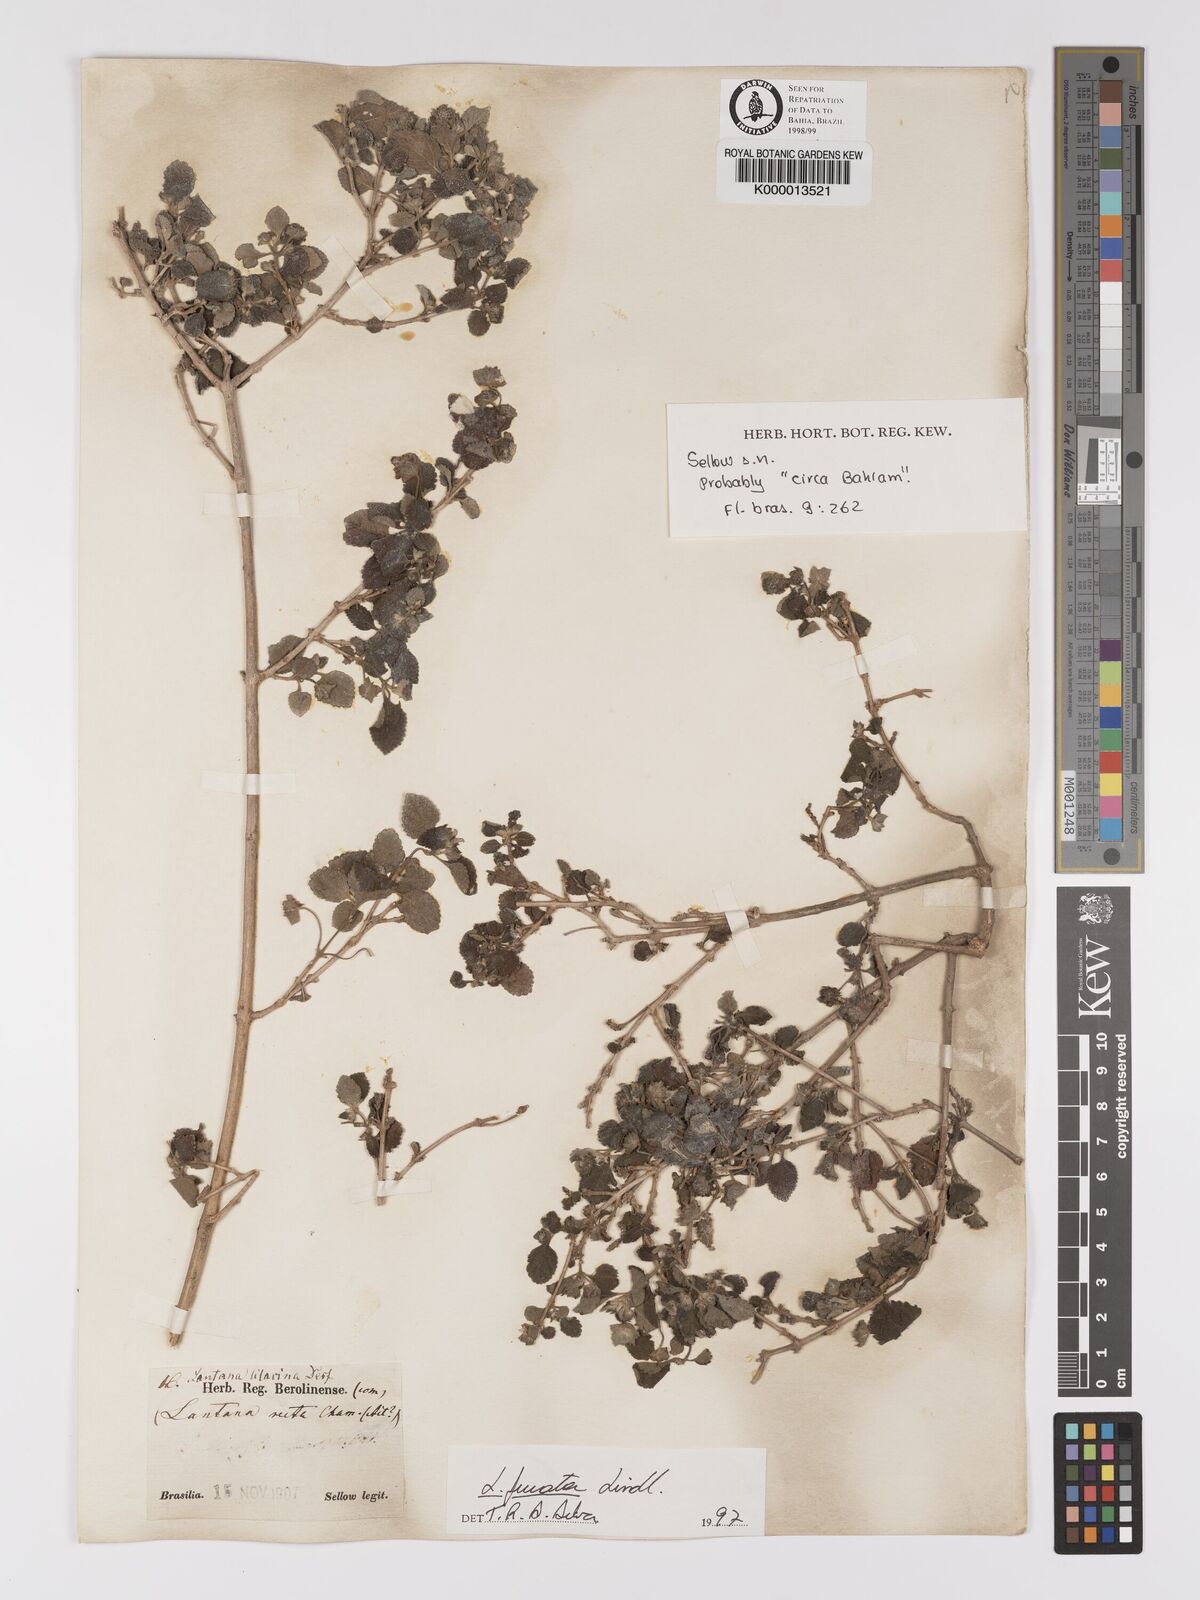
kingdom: Plantae
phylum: Tracheophyta
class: Magnoliopsida
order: Lamiales
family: Verbenaceae
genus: Lantana
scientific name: Lantana fucata
